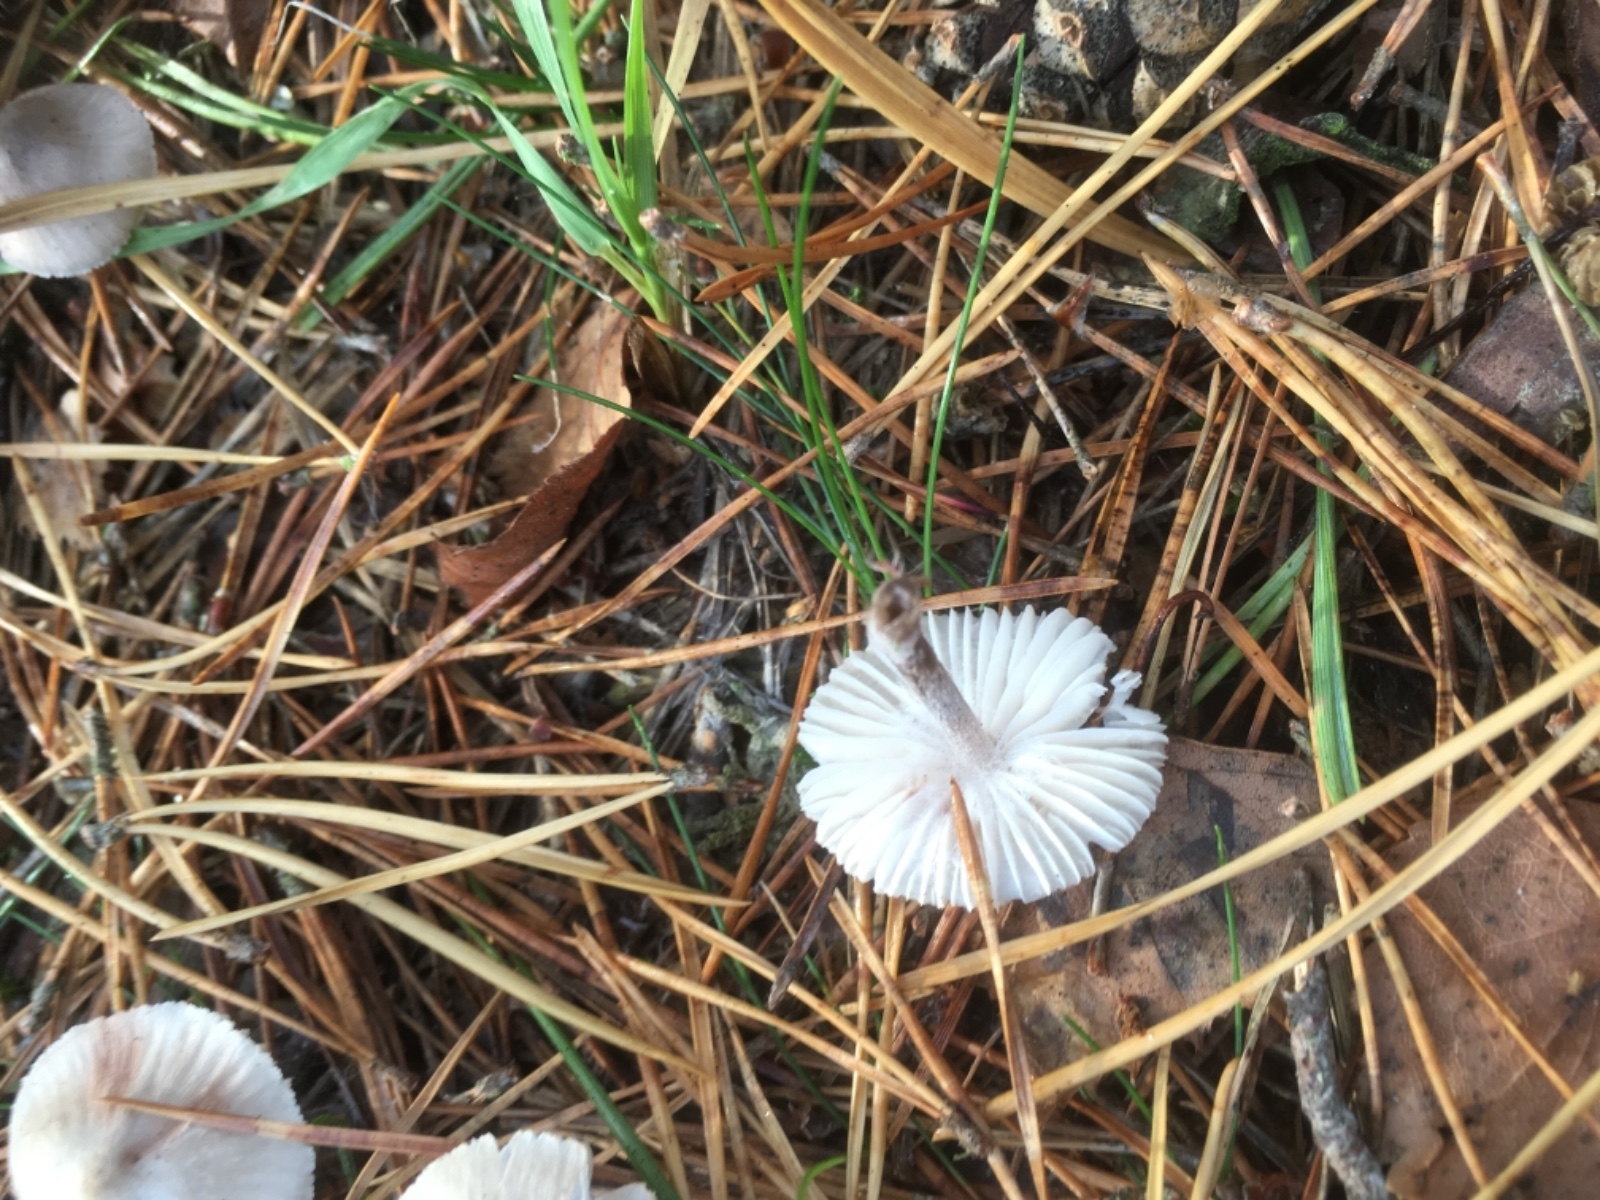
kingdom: Fungi
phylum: Basidiomycota
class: Agaricomycetes
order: Agaricales
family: Mycenaceae
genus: Mycena
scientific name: Mycena zephirus
